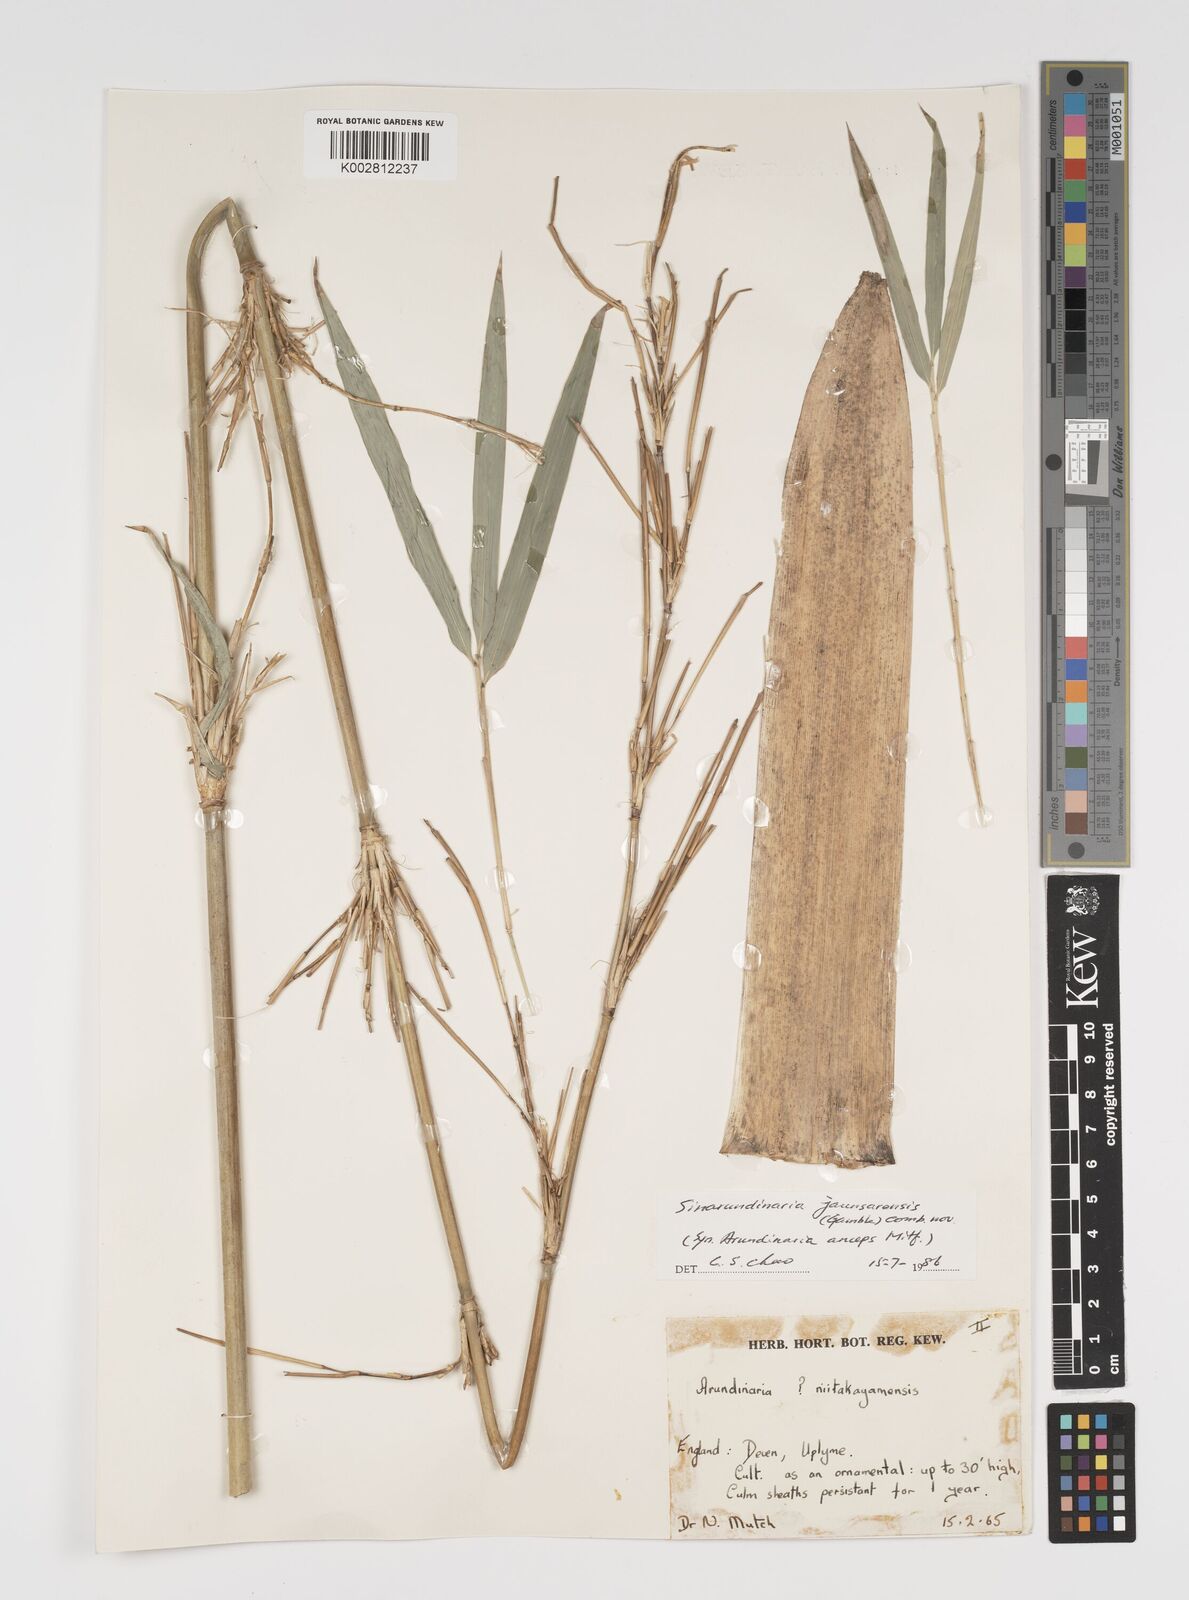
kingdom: Plantae
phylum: Tracheophyta
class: Liliopsida
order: Poales
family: Poaceae
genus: Yushania
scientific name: Yushania anceps
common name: Indian fountain-bamboo
